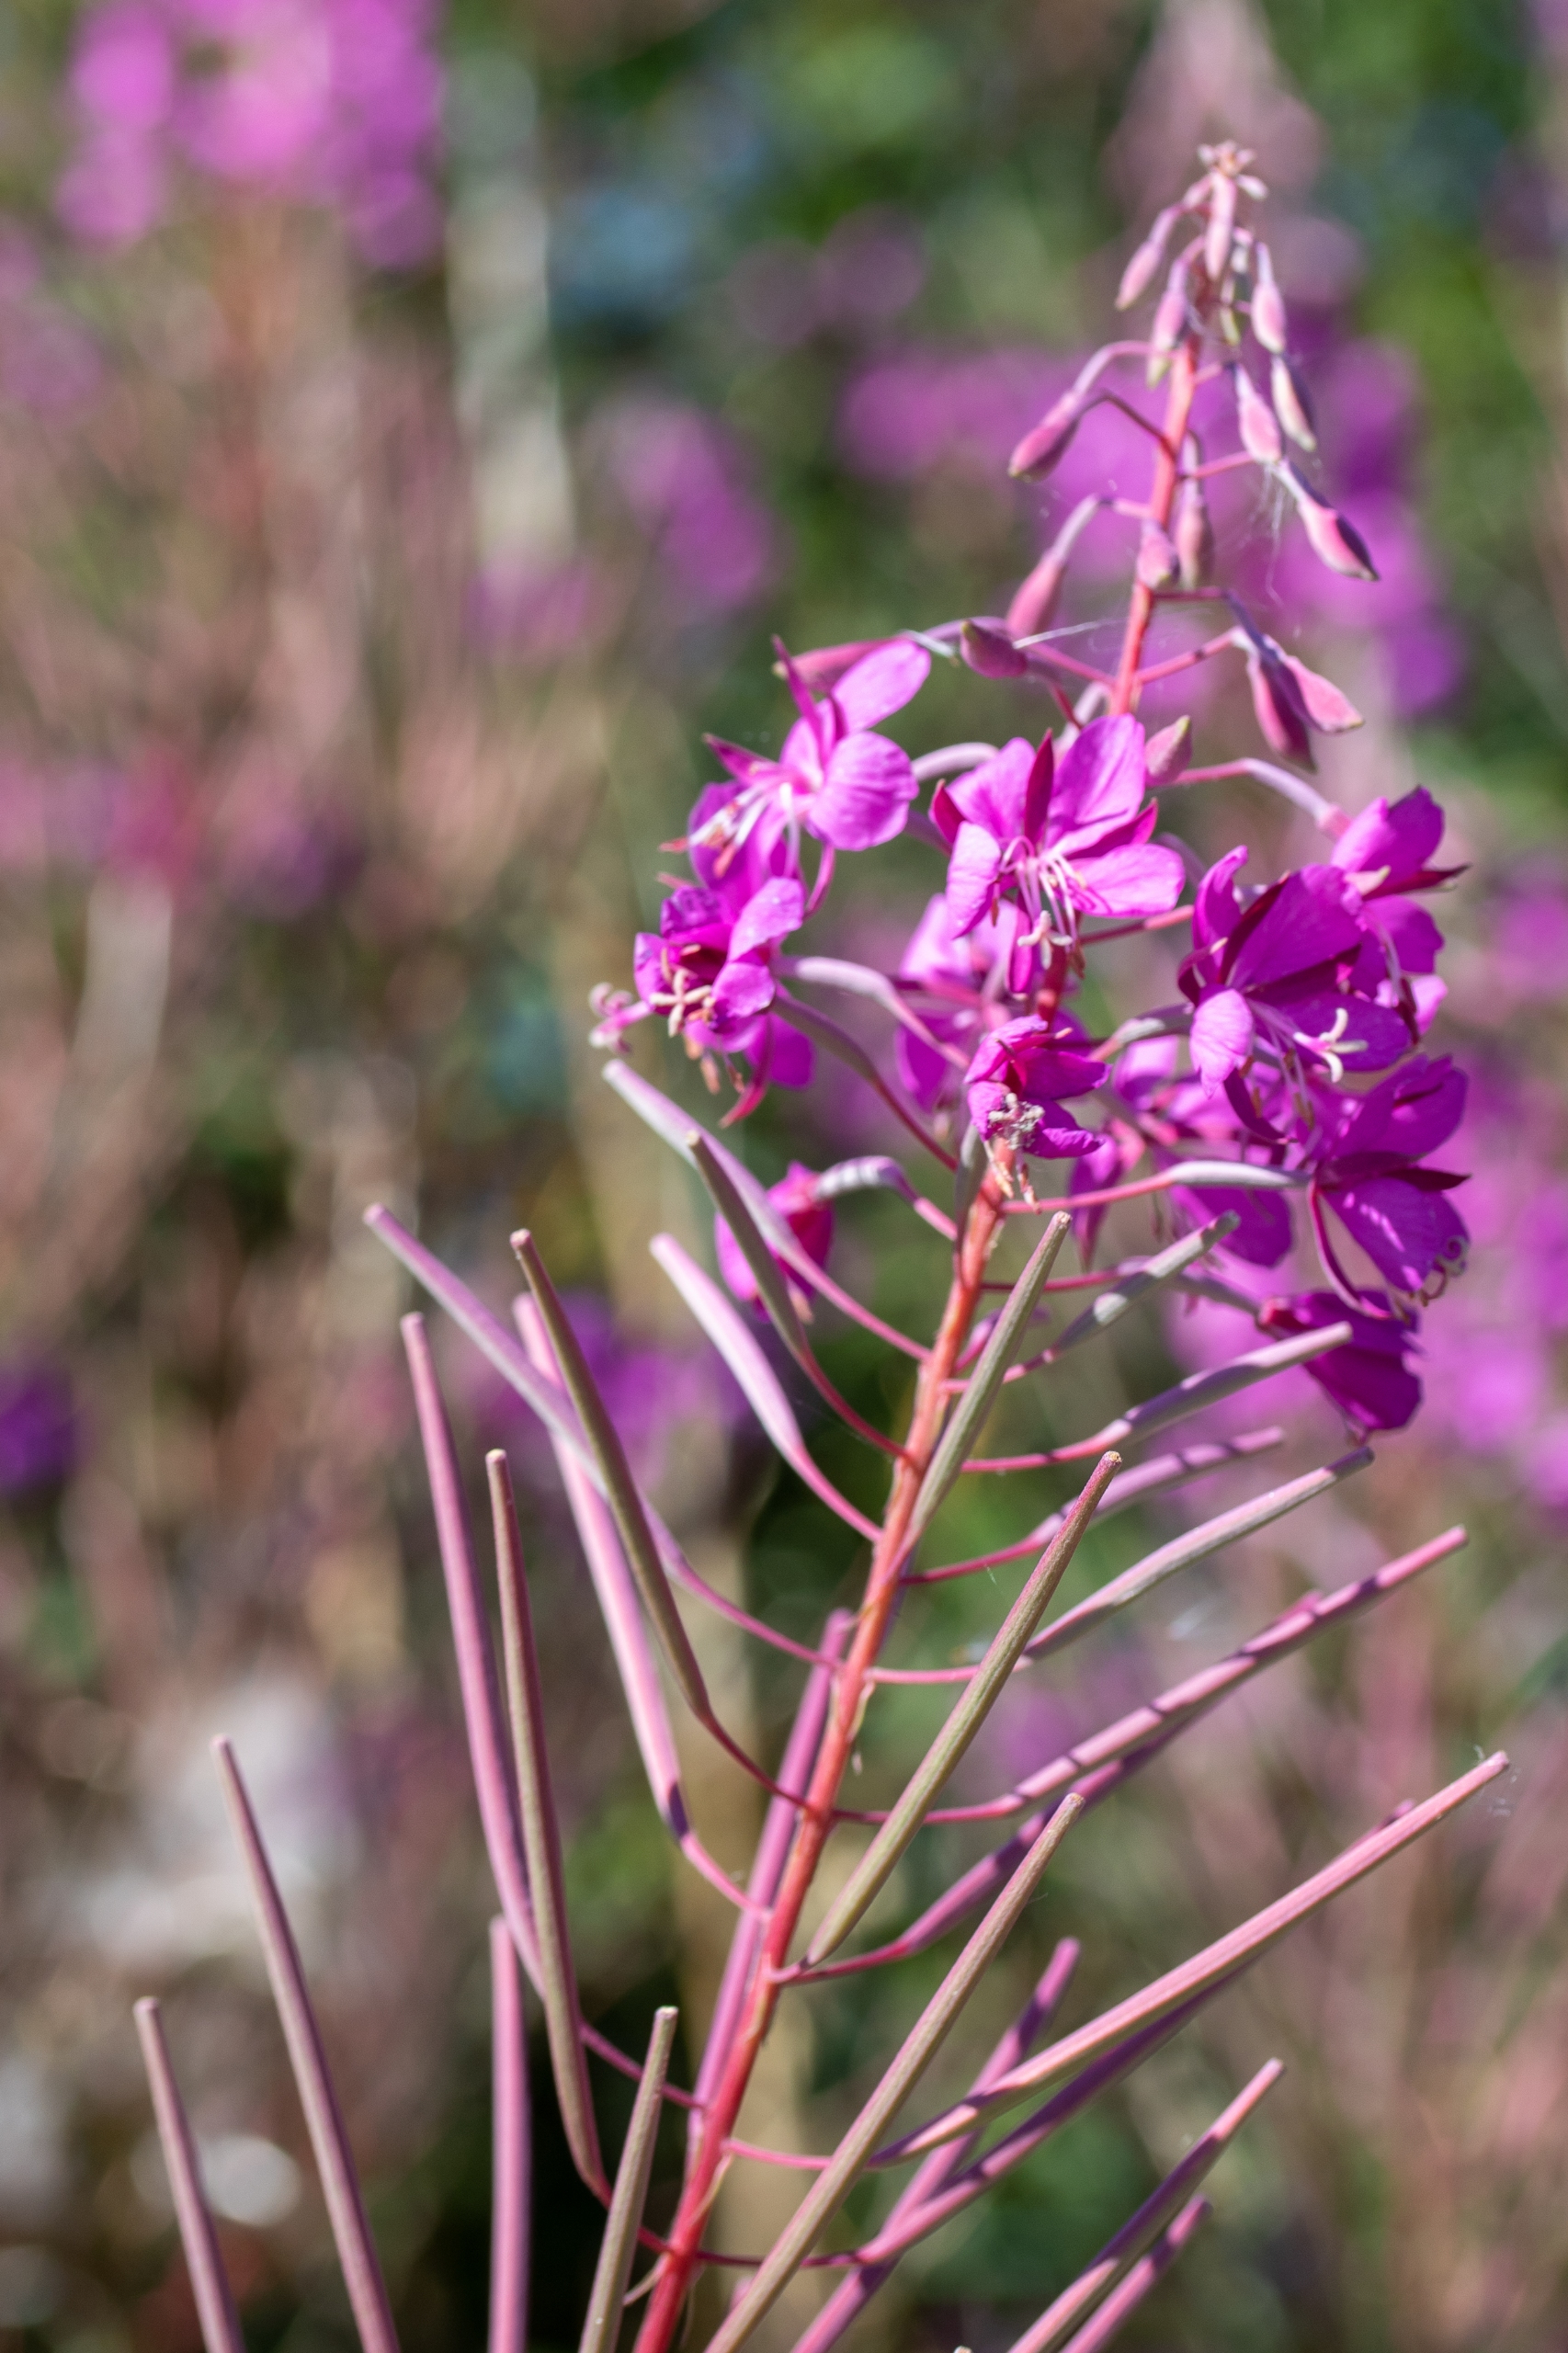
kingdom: Plantae
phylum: Tracheophyta
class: Magnoliopsida
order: Myrtales
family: Onagraceae
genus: Chamaenerion
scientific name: Chamaenerion angustifolium
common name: Gederams
